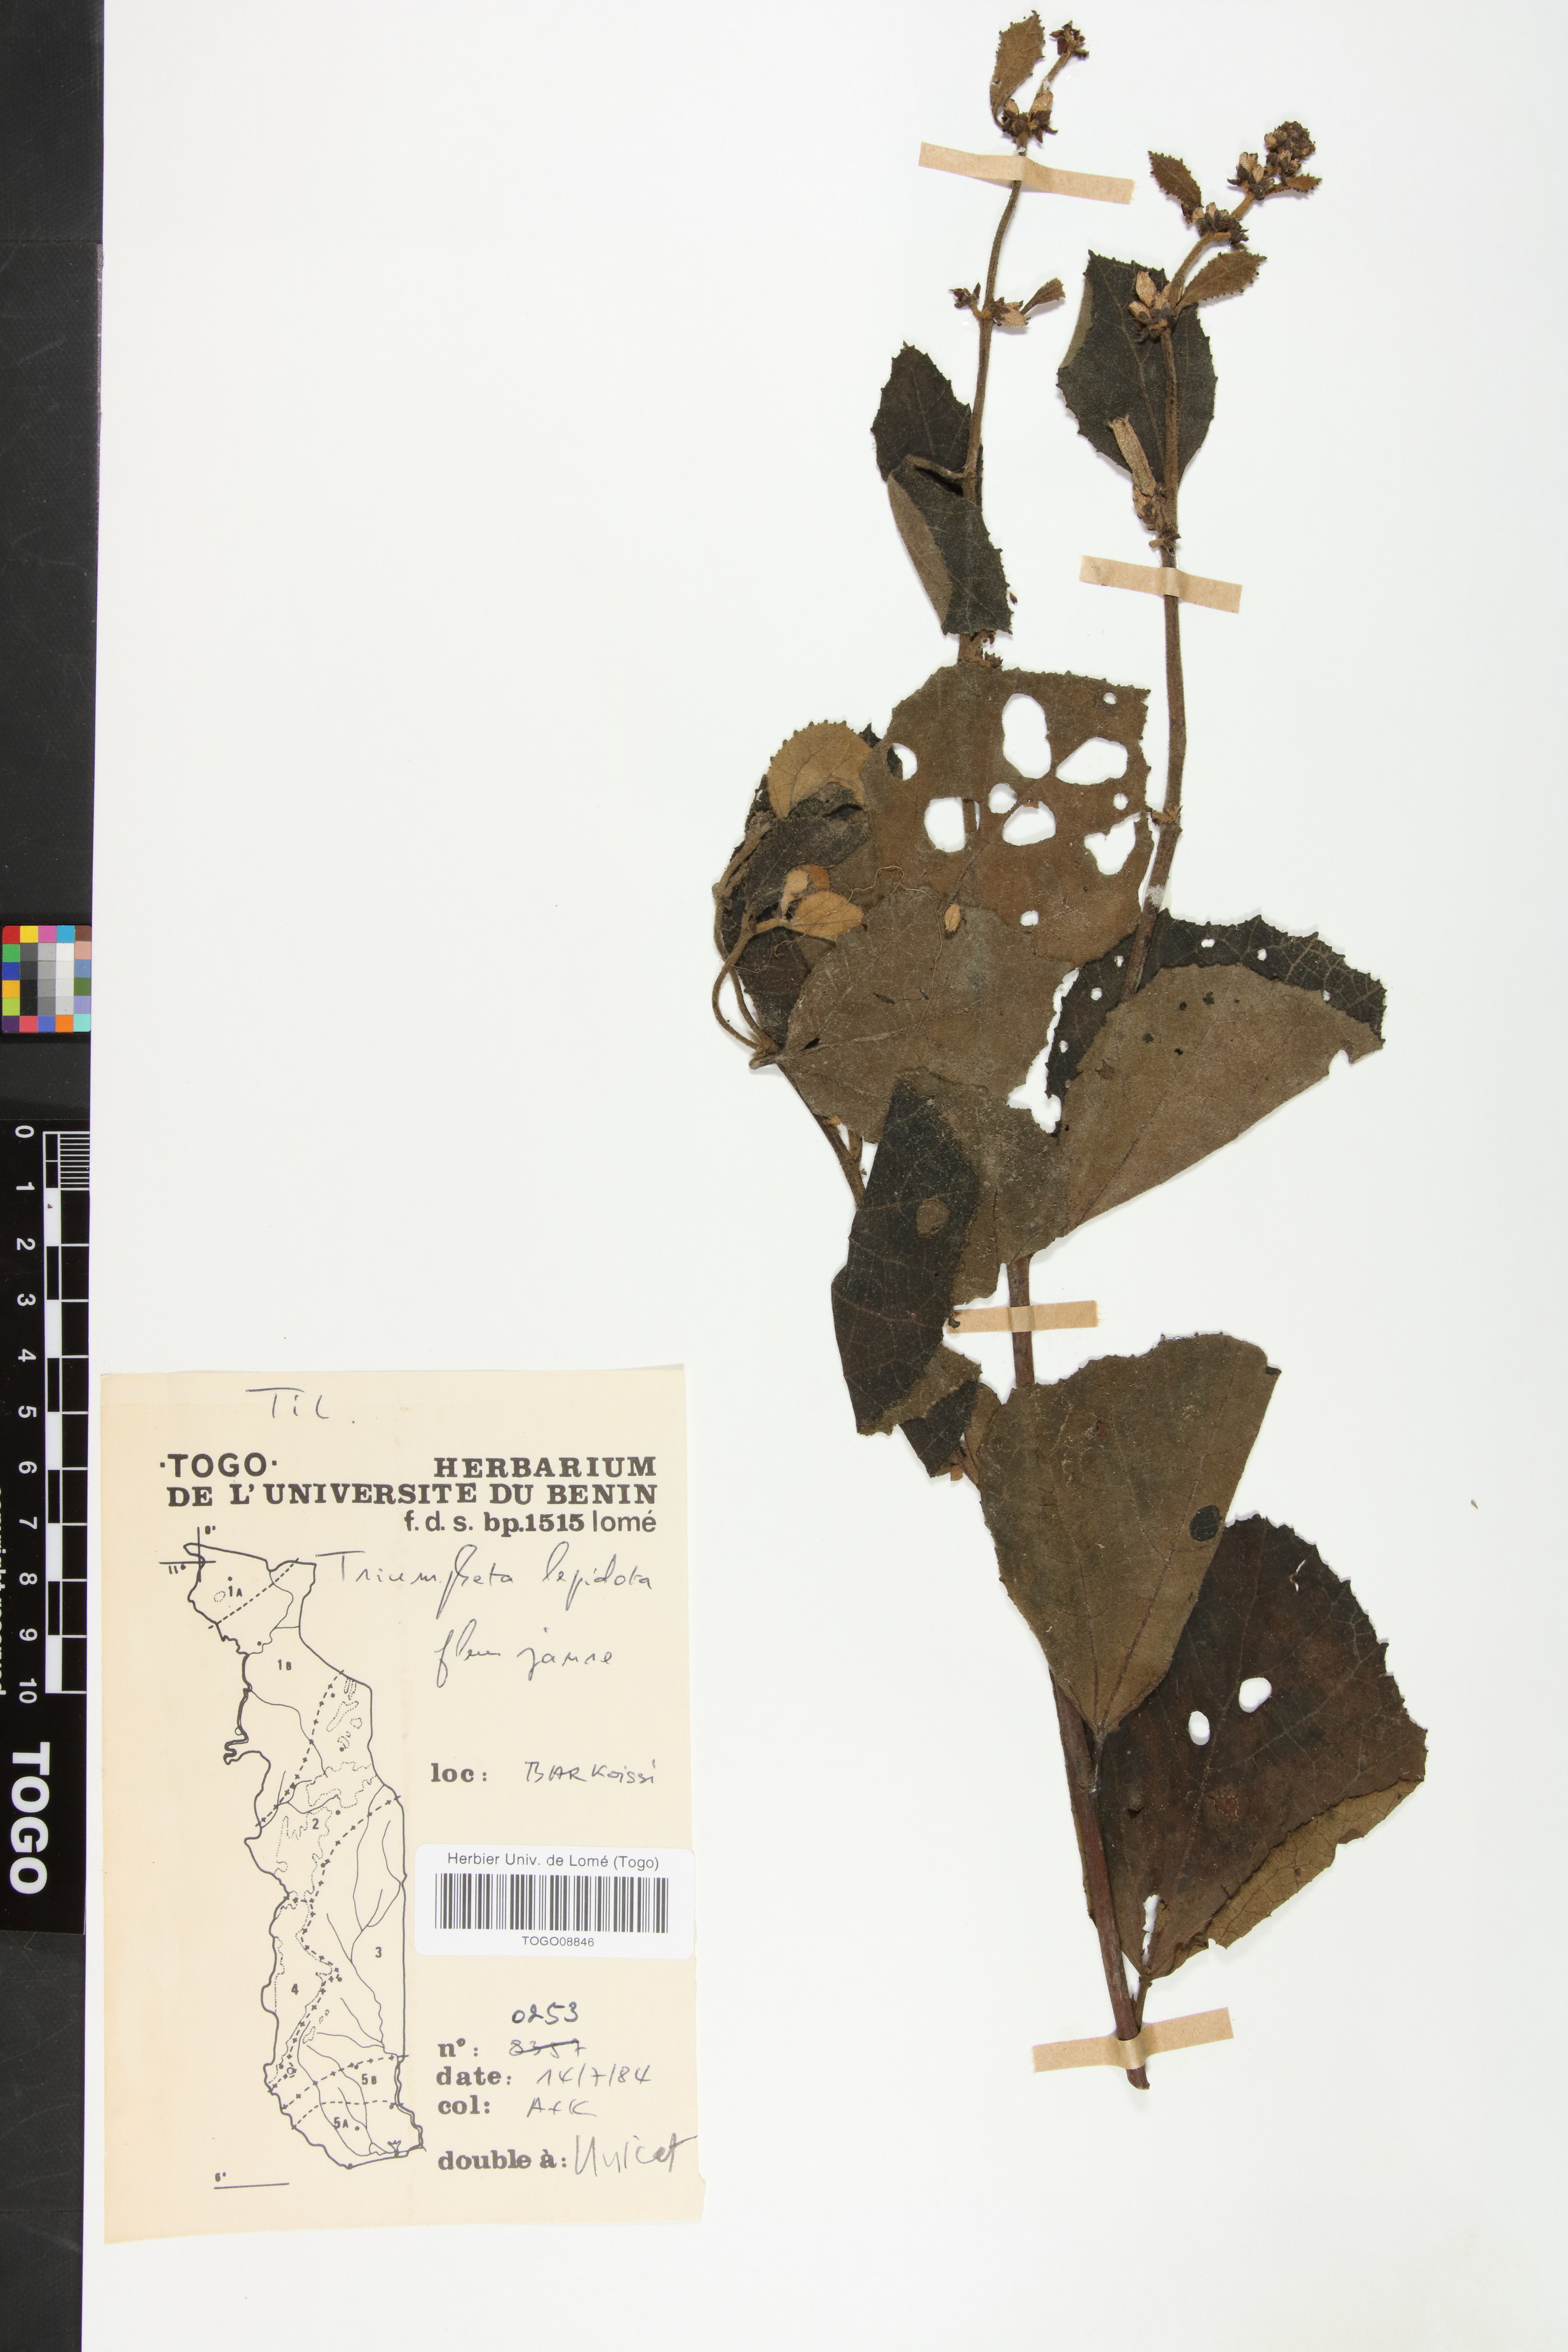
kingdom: Plantae
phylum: Tracheophyta
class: Magnoliopsida
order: Malvales
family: Malvaceae
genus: Triumfetta
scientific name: Triumfetta lepidota
